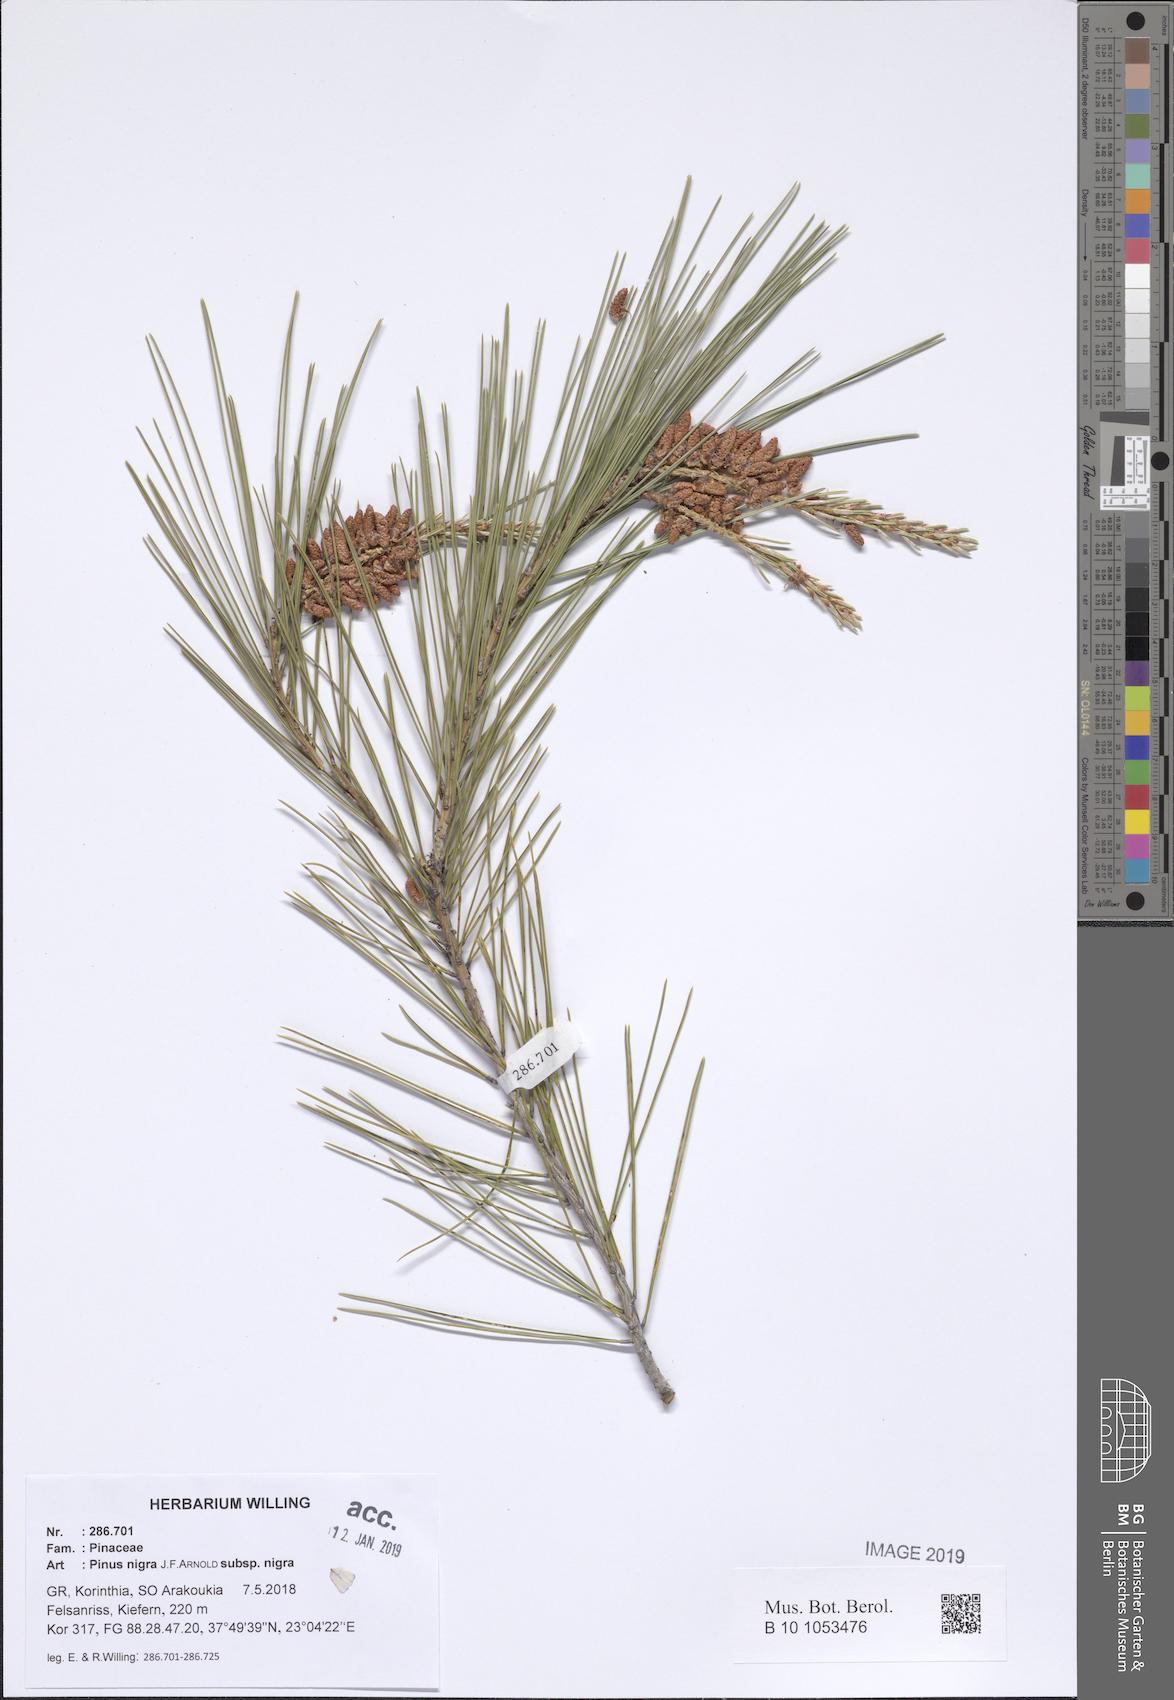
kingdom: Plantae
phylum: Tracheophyta
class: Pinopsida
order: Pinales
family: Pinaceae
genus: Pinus
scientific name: Pinus nigra
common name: Austrian pine
